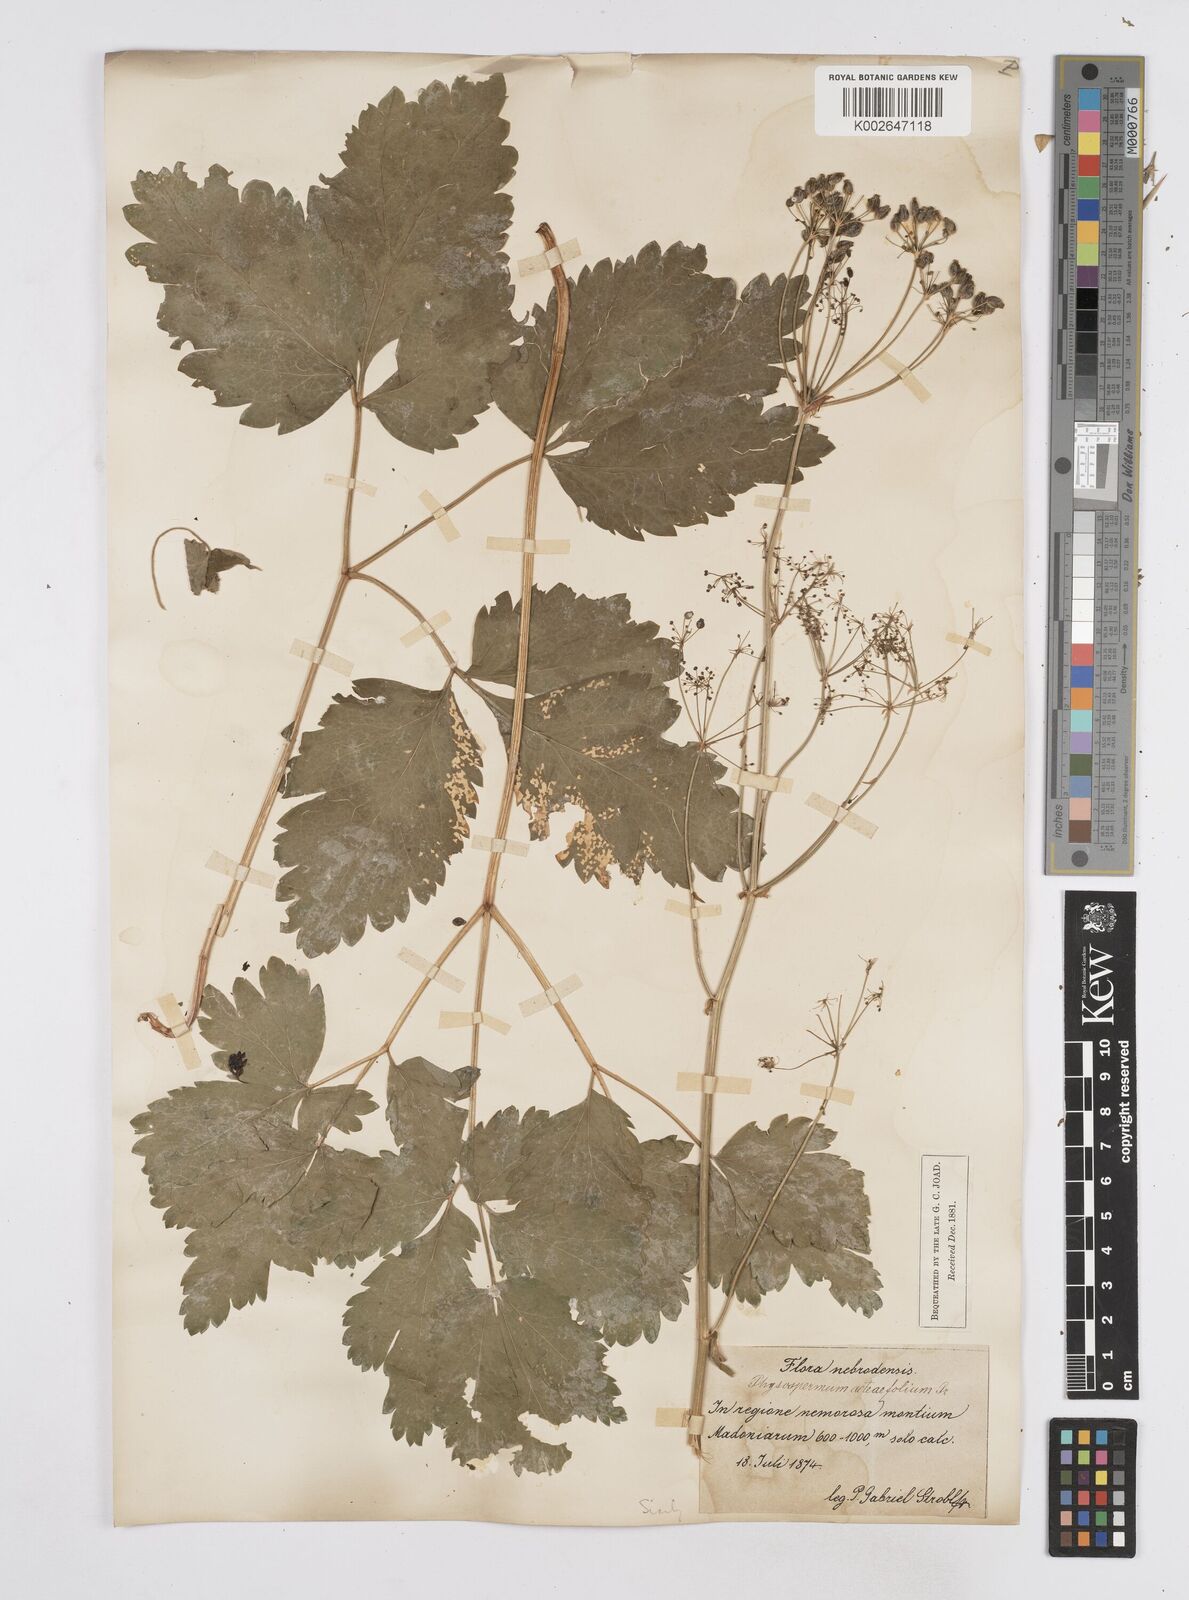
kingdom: Plantae
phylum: Tracheophyta
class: Magnoliopsida
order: Apiales
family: Apiaceae
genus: Physospermum
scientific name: Physospermum verticillatum
